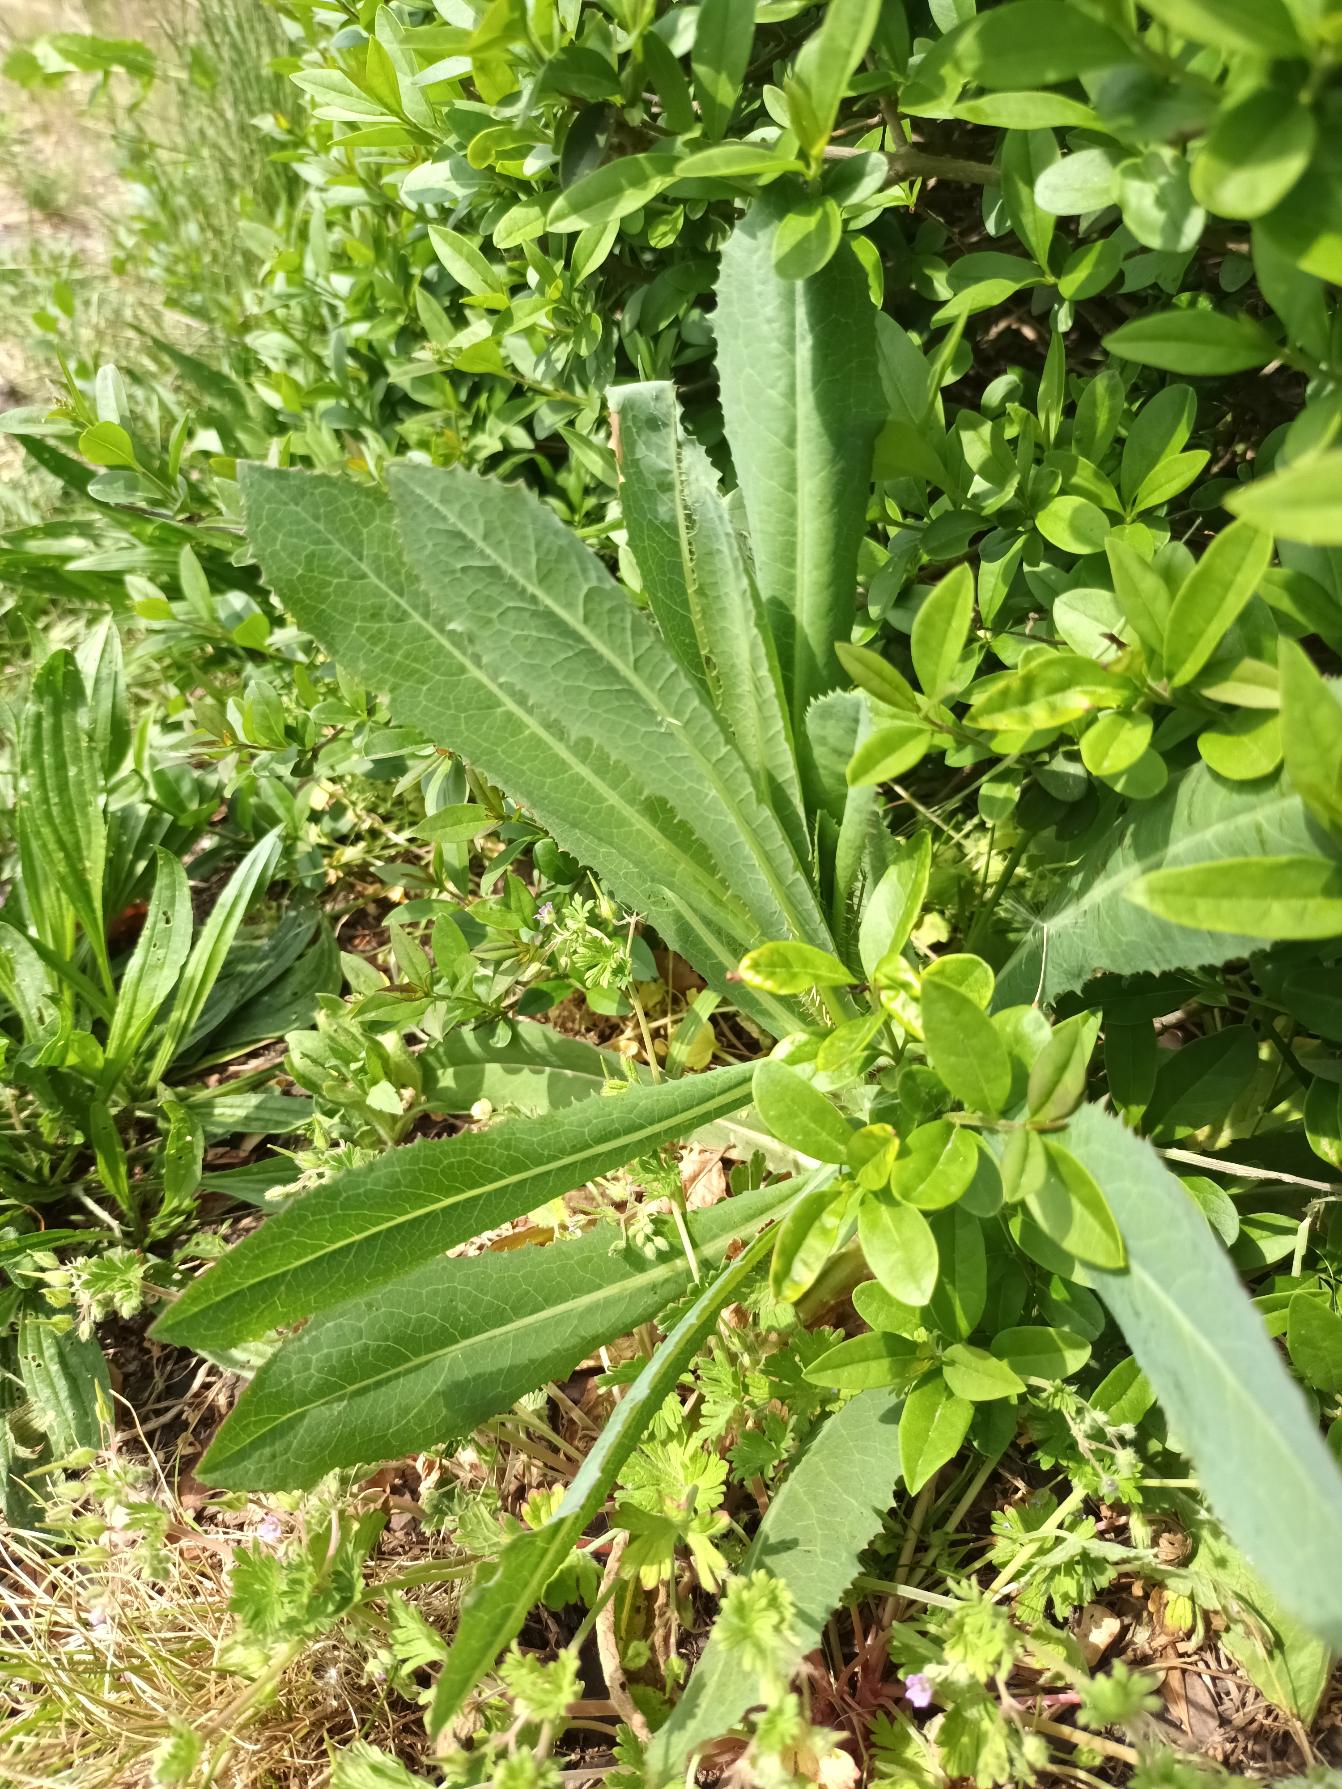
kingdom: Plantae
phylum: Tracheophyta
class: Magnoliopsida
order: Asterales
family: Asteraceae
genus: Lactuca
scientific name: Lactuca serriola
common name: Tornet salat
